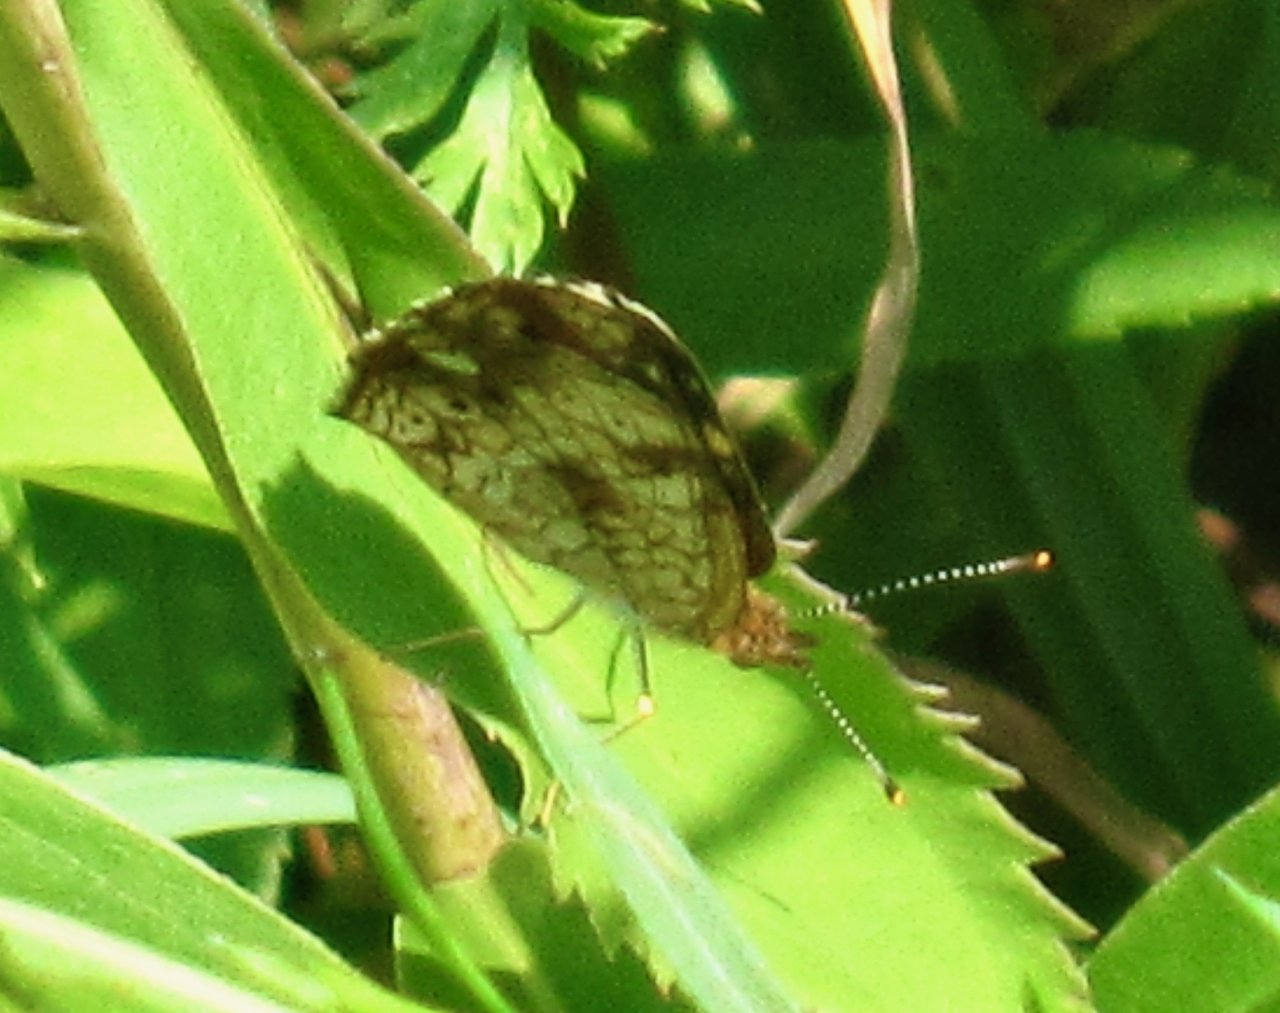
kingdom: Animalia
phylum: Arthropoda
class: Insecta
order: Lepidoptera
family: Nymphalidae
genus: Phyciodes
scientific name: Phyciodes tharos
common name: Pearl Crescent
